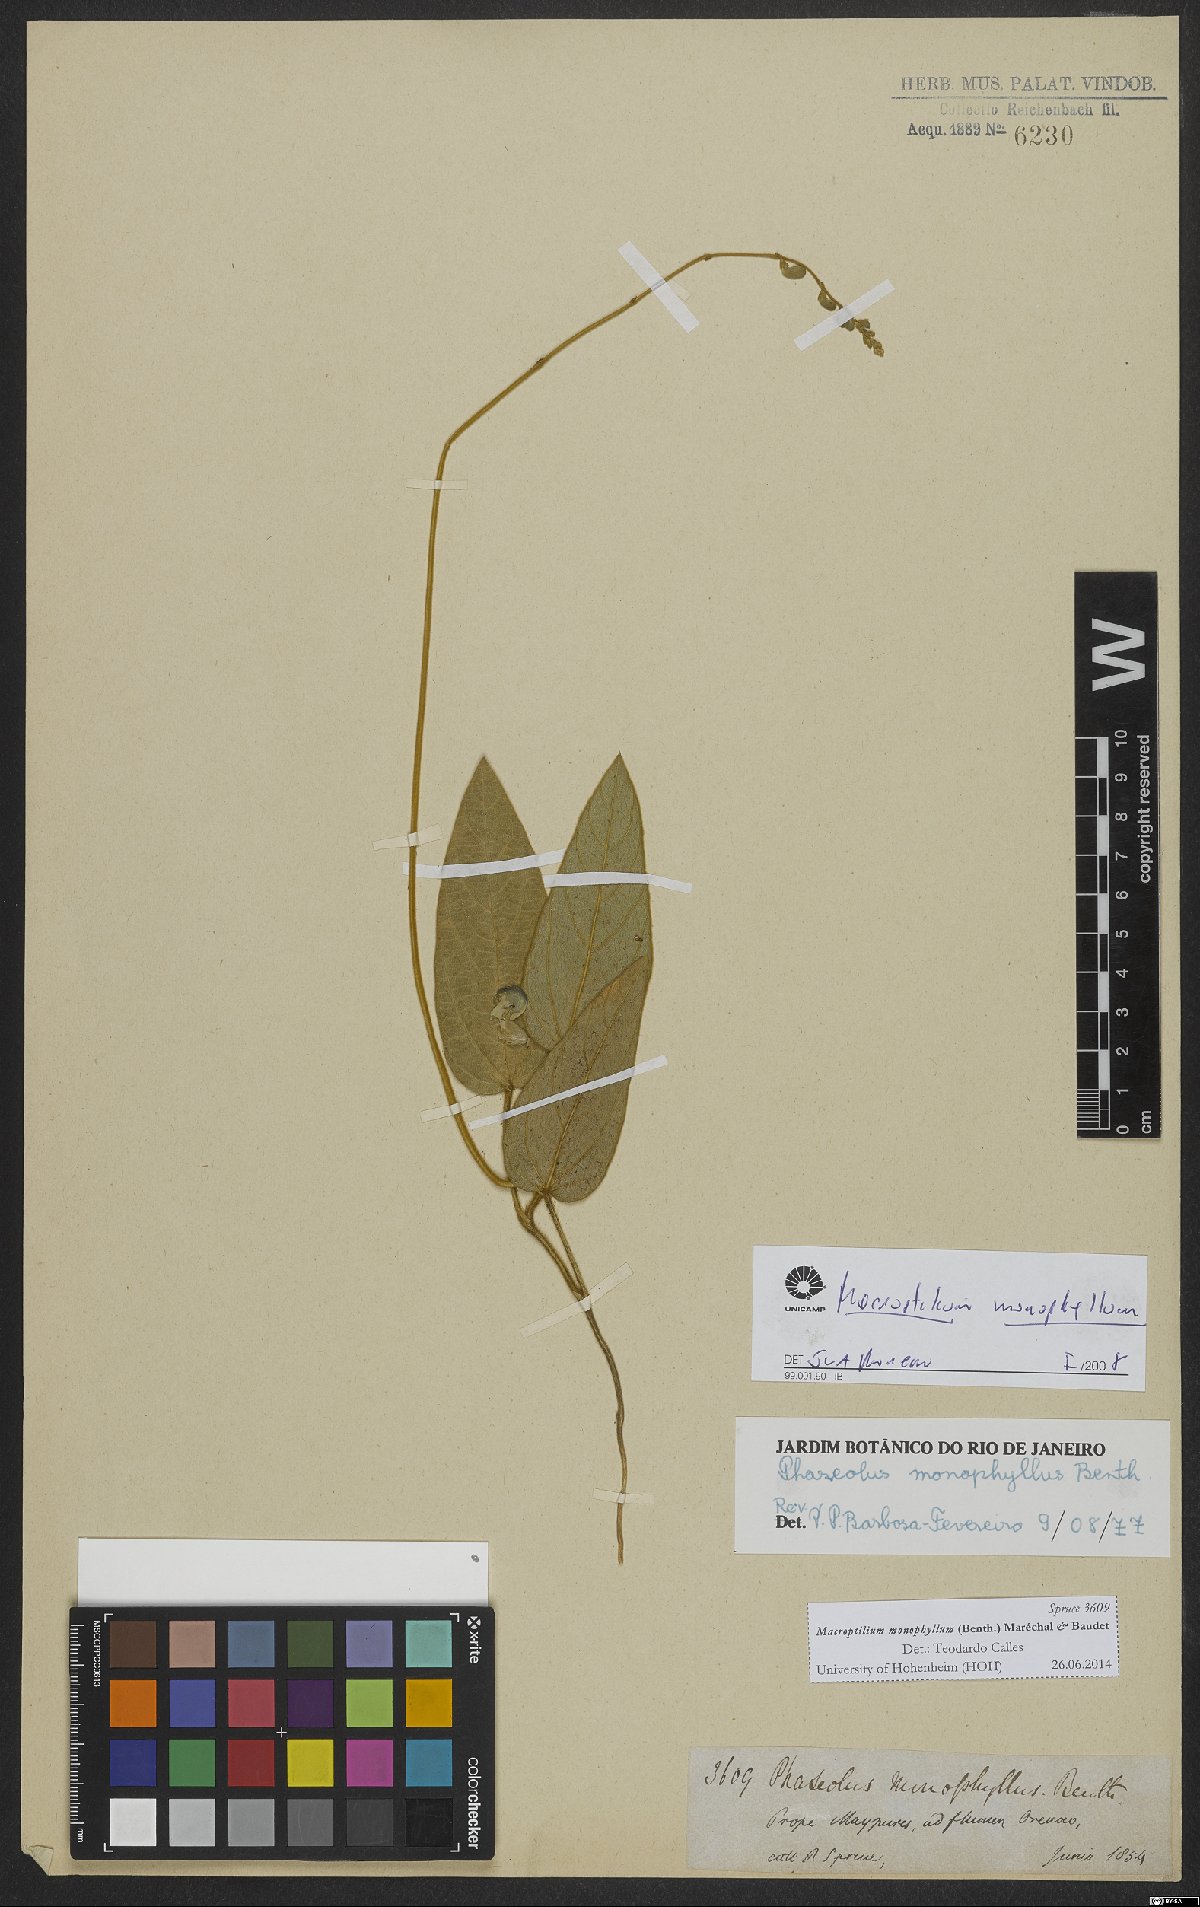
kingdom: Plantae
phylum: Tracheophyta
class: Magnoliopsida
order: Fabales
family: Fabaceae
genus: Macroptilium
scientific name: Macroptilium monophyllum
